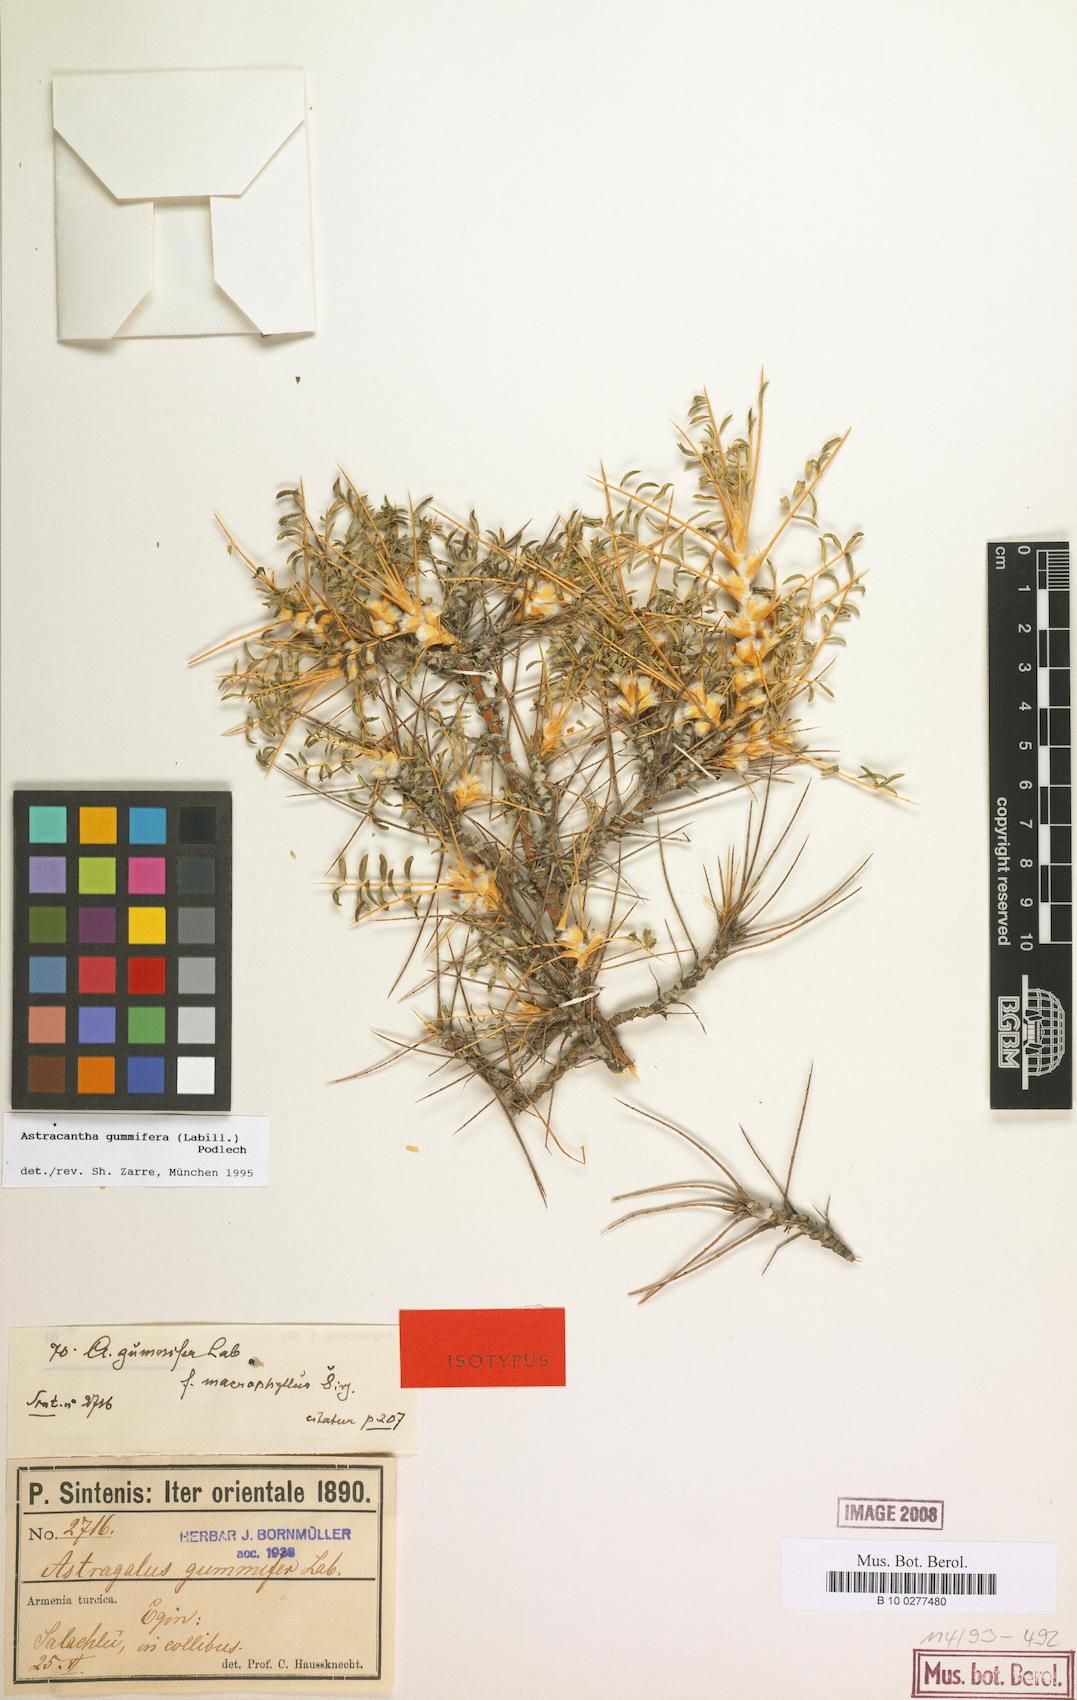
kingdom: Plantae
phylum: Tracheophyta
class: Magnoliopsida
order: Fabales
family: Fabaceae
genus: Astragalus
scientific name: Astragalus gummifer
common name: Tragacanth
